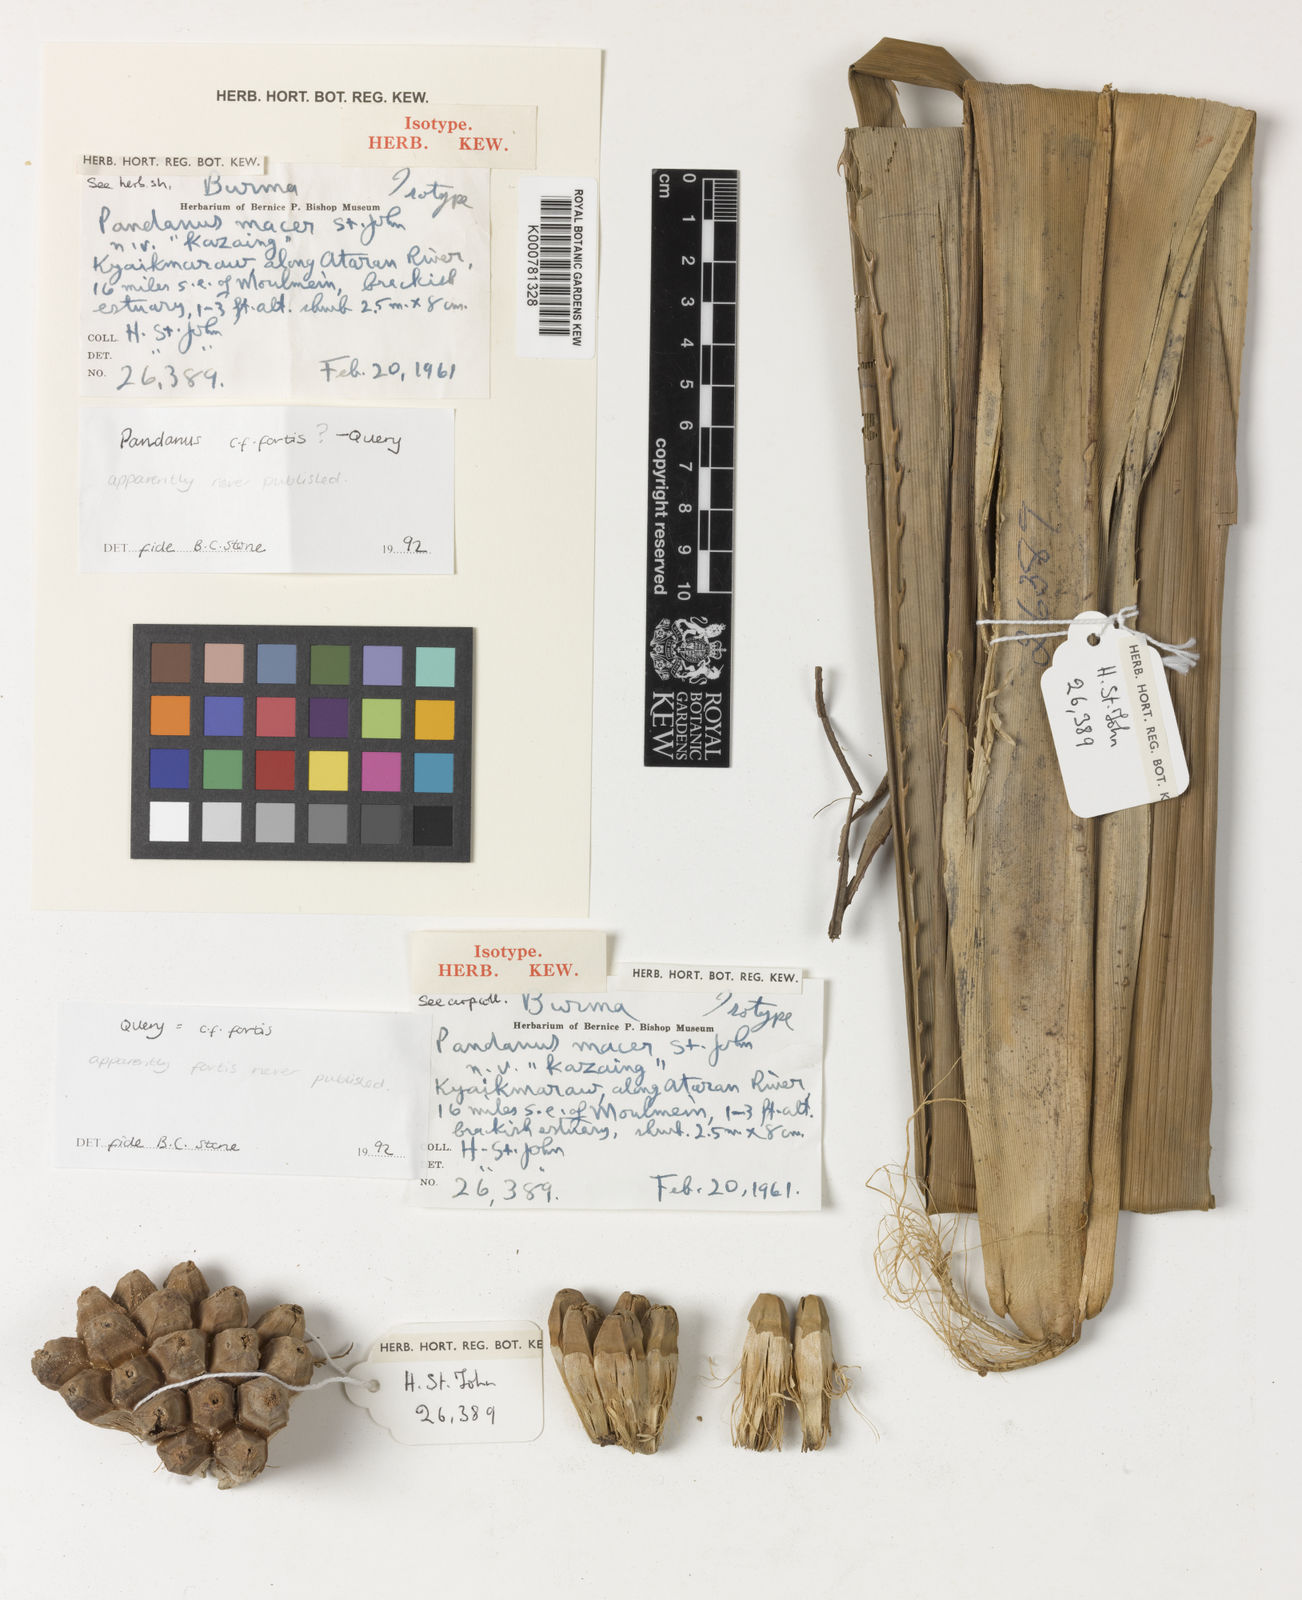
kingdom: Plantae
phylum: Tracheophyta
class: Liliopsida
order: Pandanales
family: Pandanaceae
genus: Pandanus
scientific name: Pandanus penangensis
